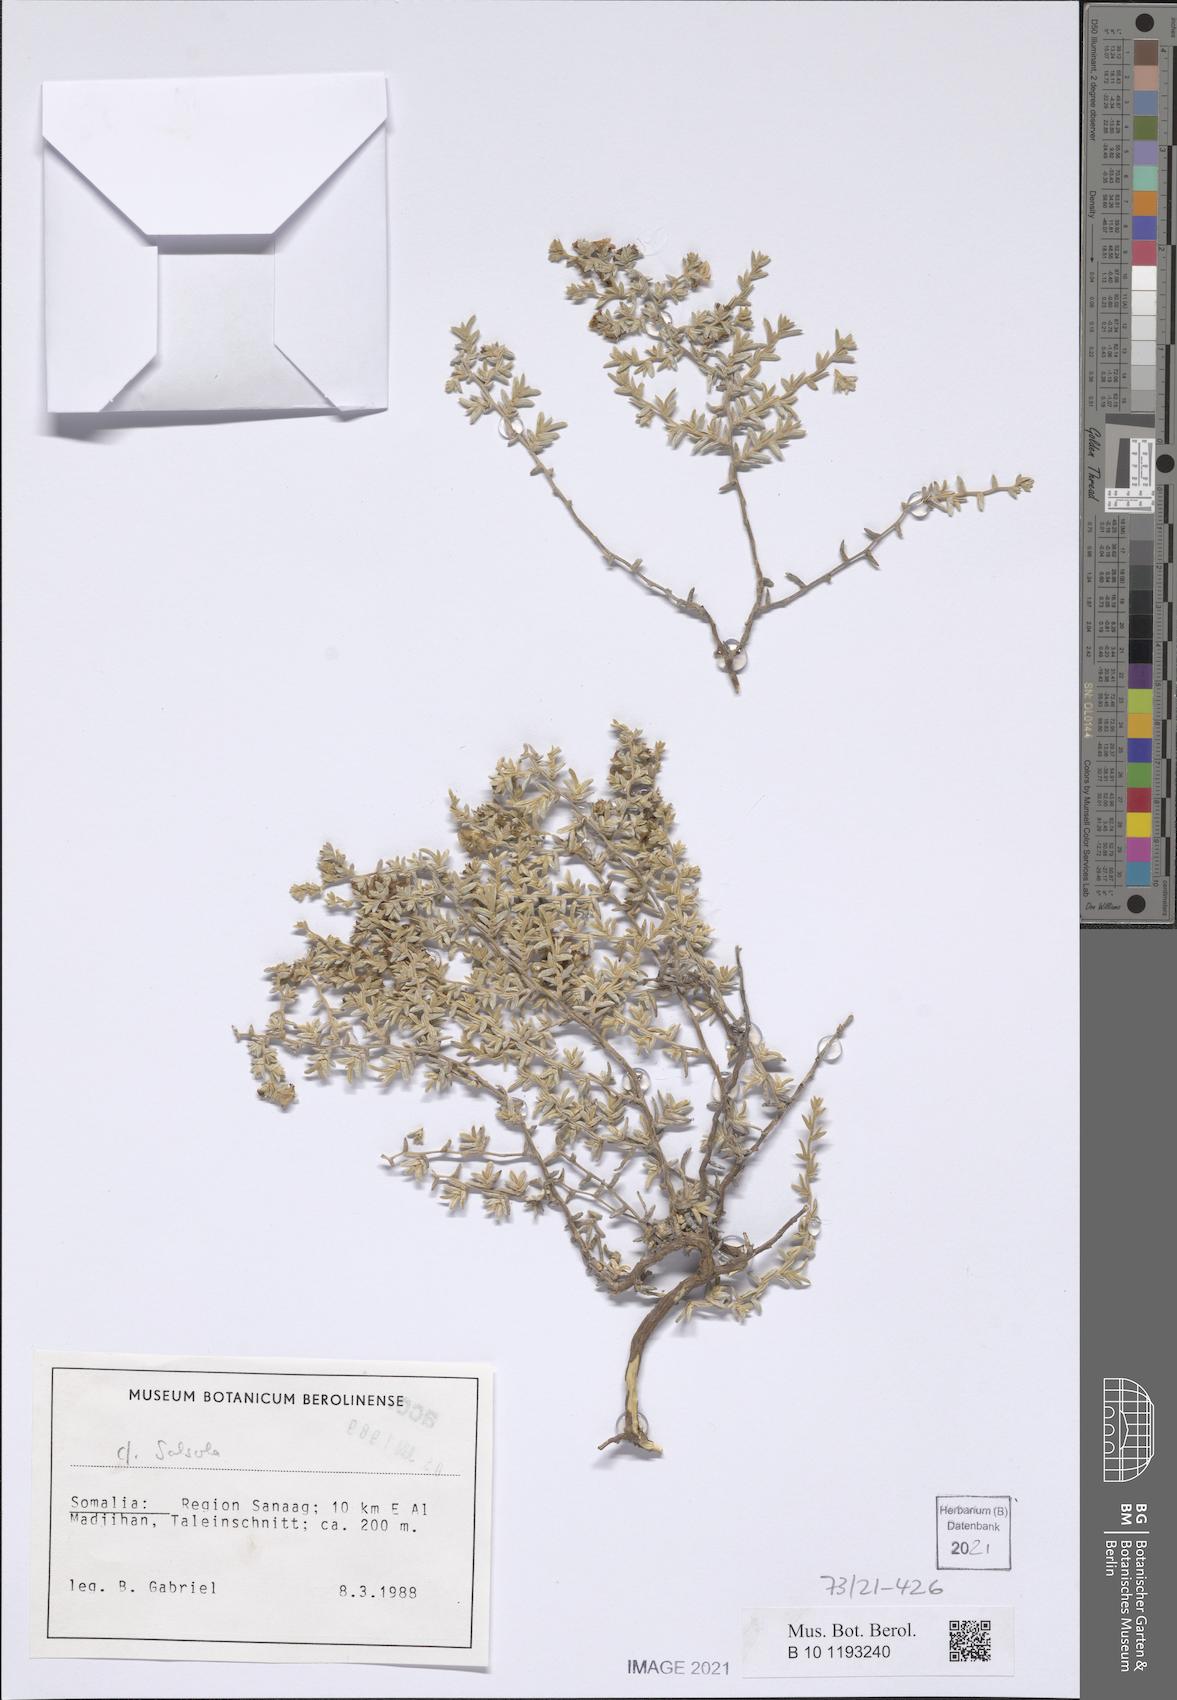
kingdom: Plantae
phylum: Tracheophyta
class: Magnoliopsida
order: Caryophyllales
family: Amaranthaceae
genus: Salsola
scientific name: Salsola
